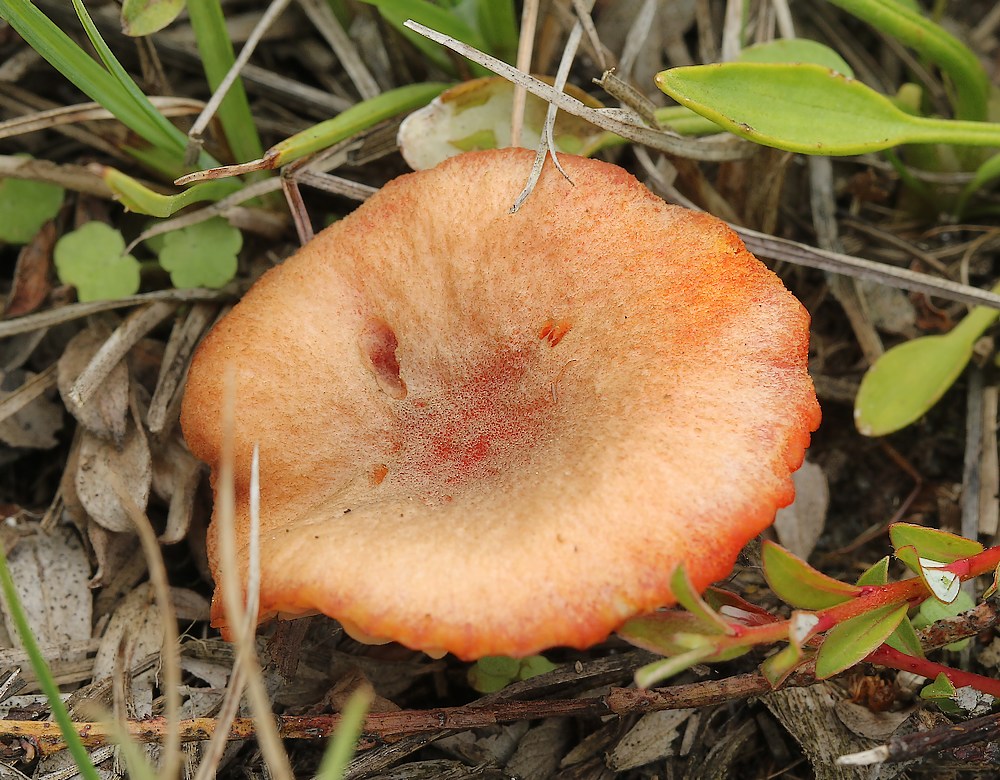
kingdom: Fungi
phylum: Basidiomycota
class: Agaricomycetes
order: Agaricales
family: Hygrophoraceae
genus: Hygrocybe
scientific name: Hygrocybe coccineocrenata
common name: tørvemos-vokshat
